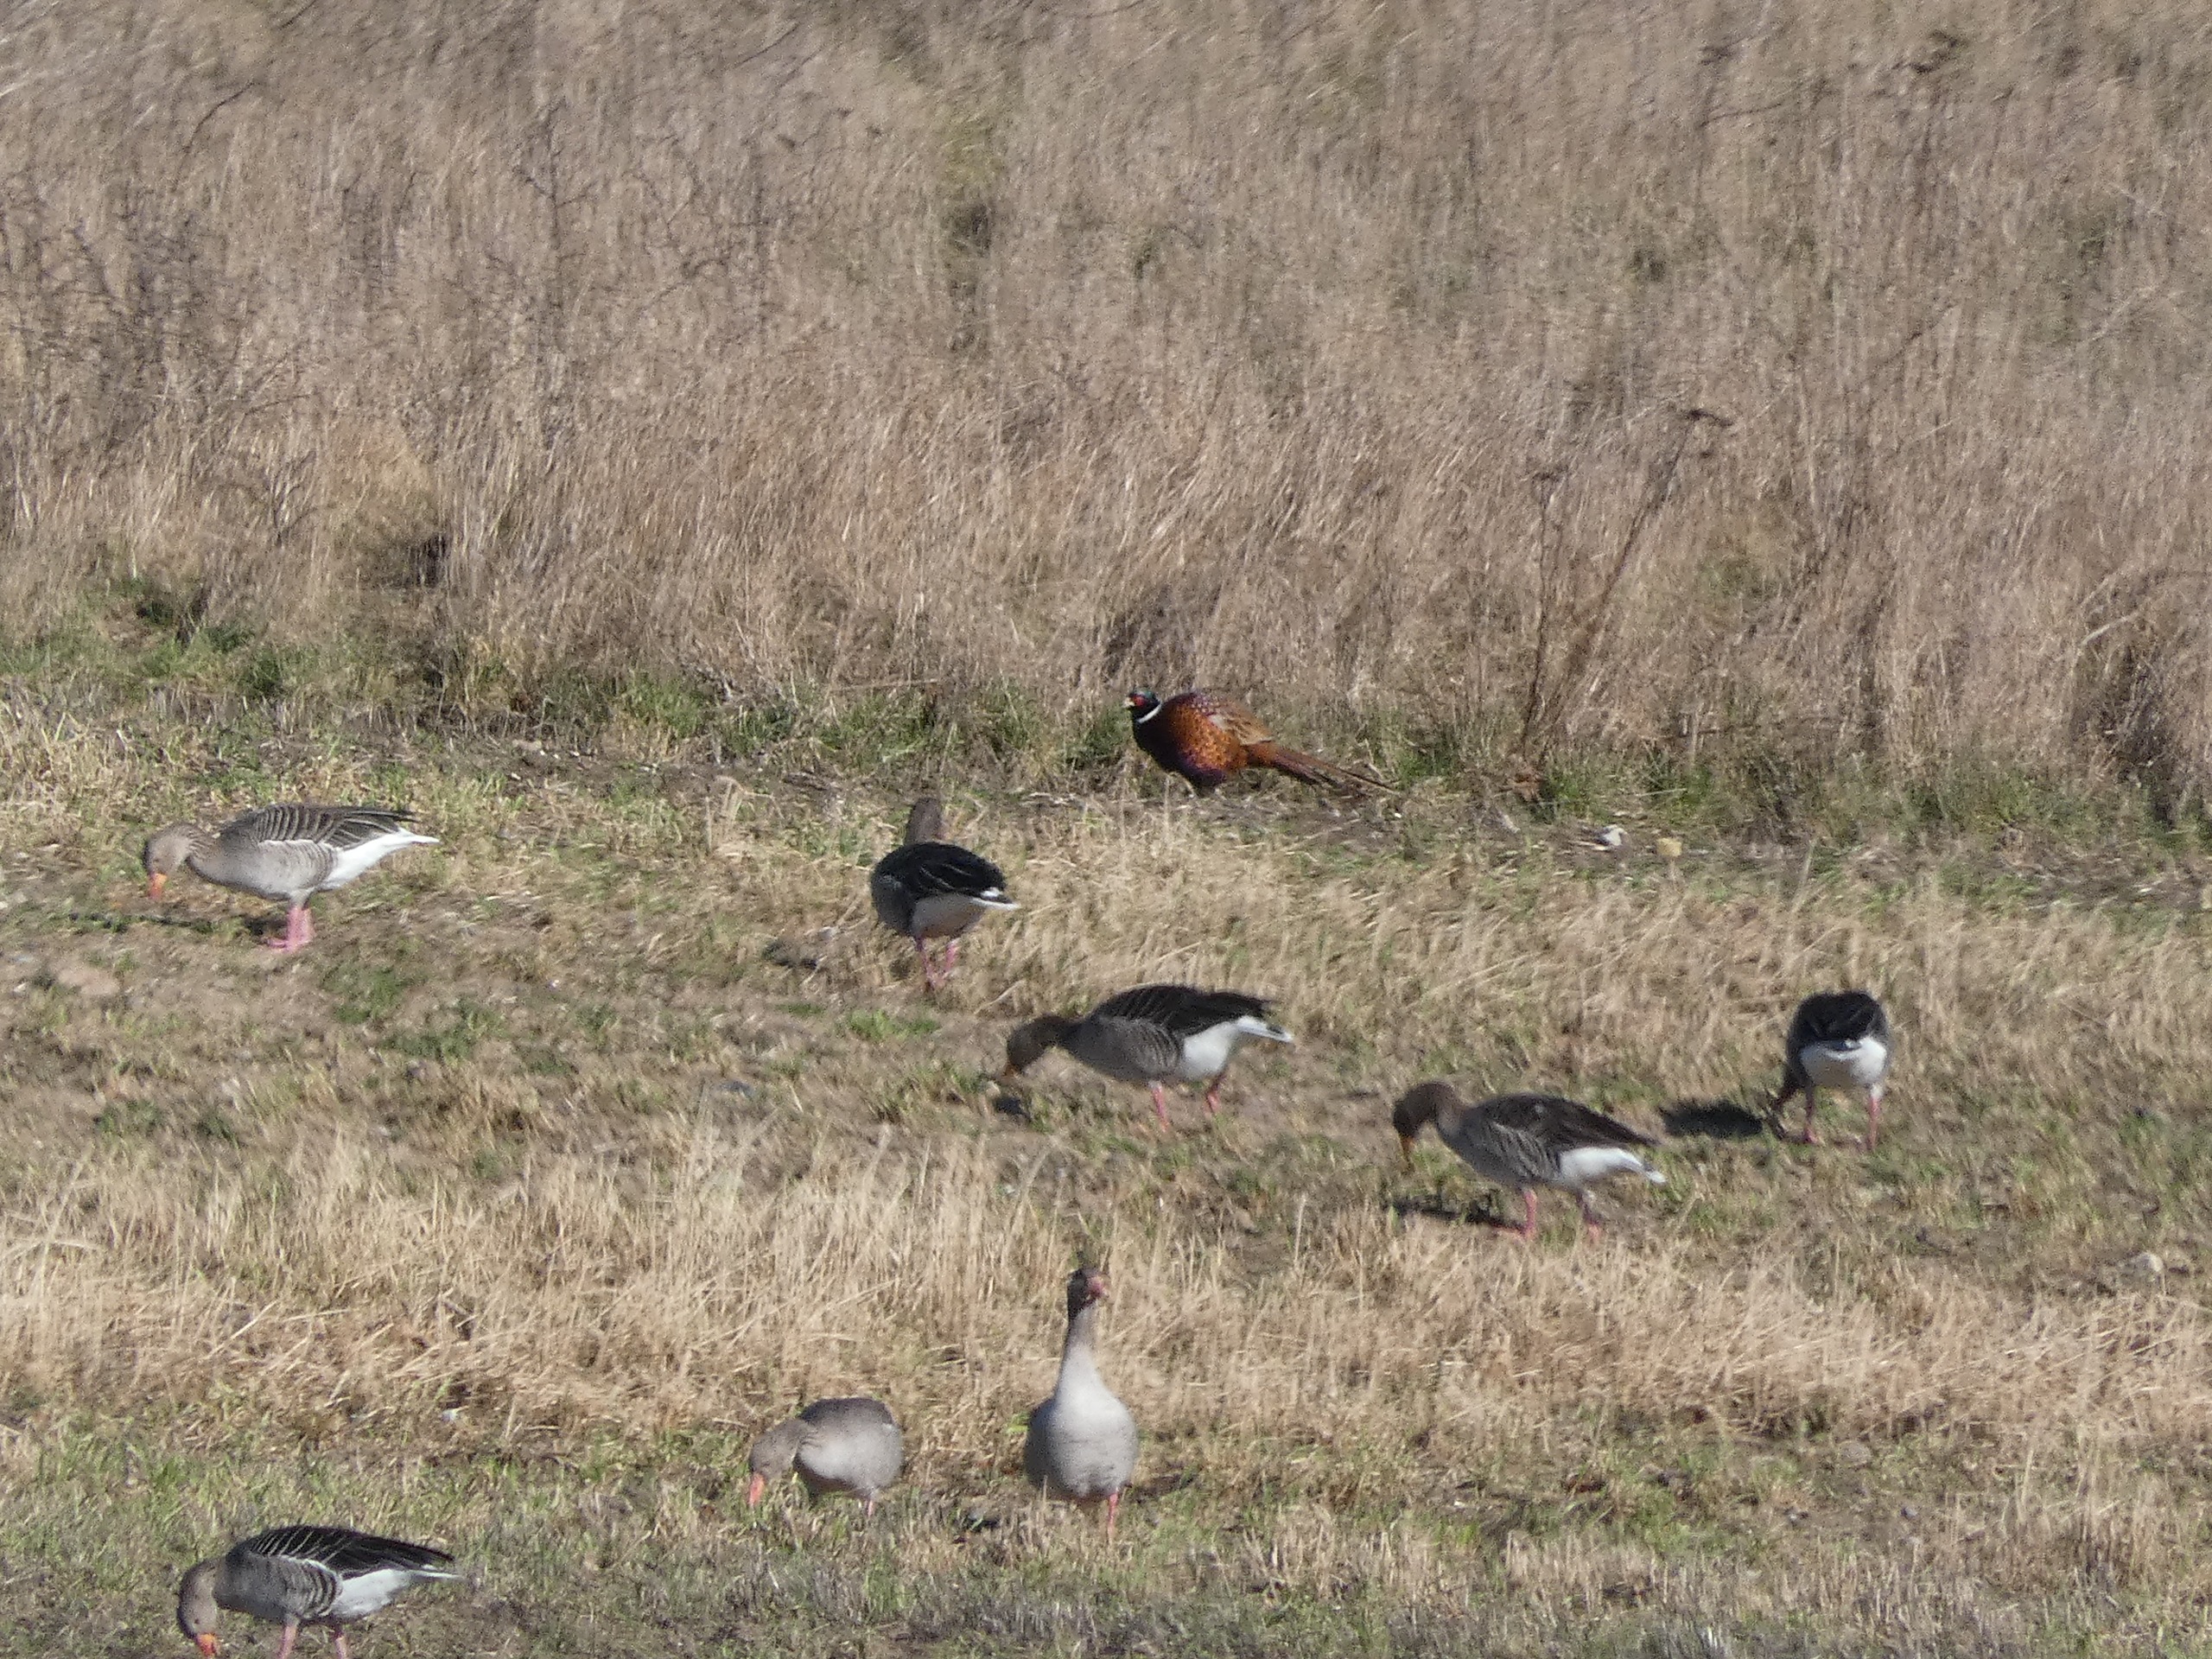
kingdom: Animalia
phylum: Chordata
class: Aves
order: Galliformes
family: Phasianidae
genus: Phasianus
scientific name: Phasianus colchicus
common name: Fasan
